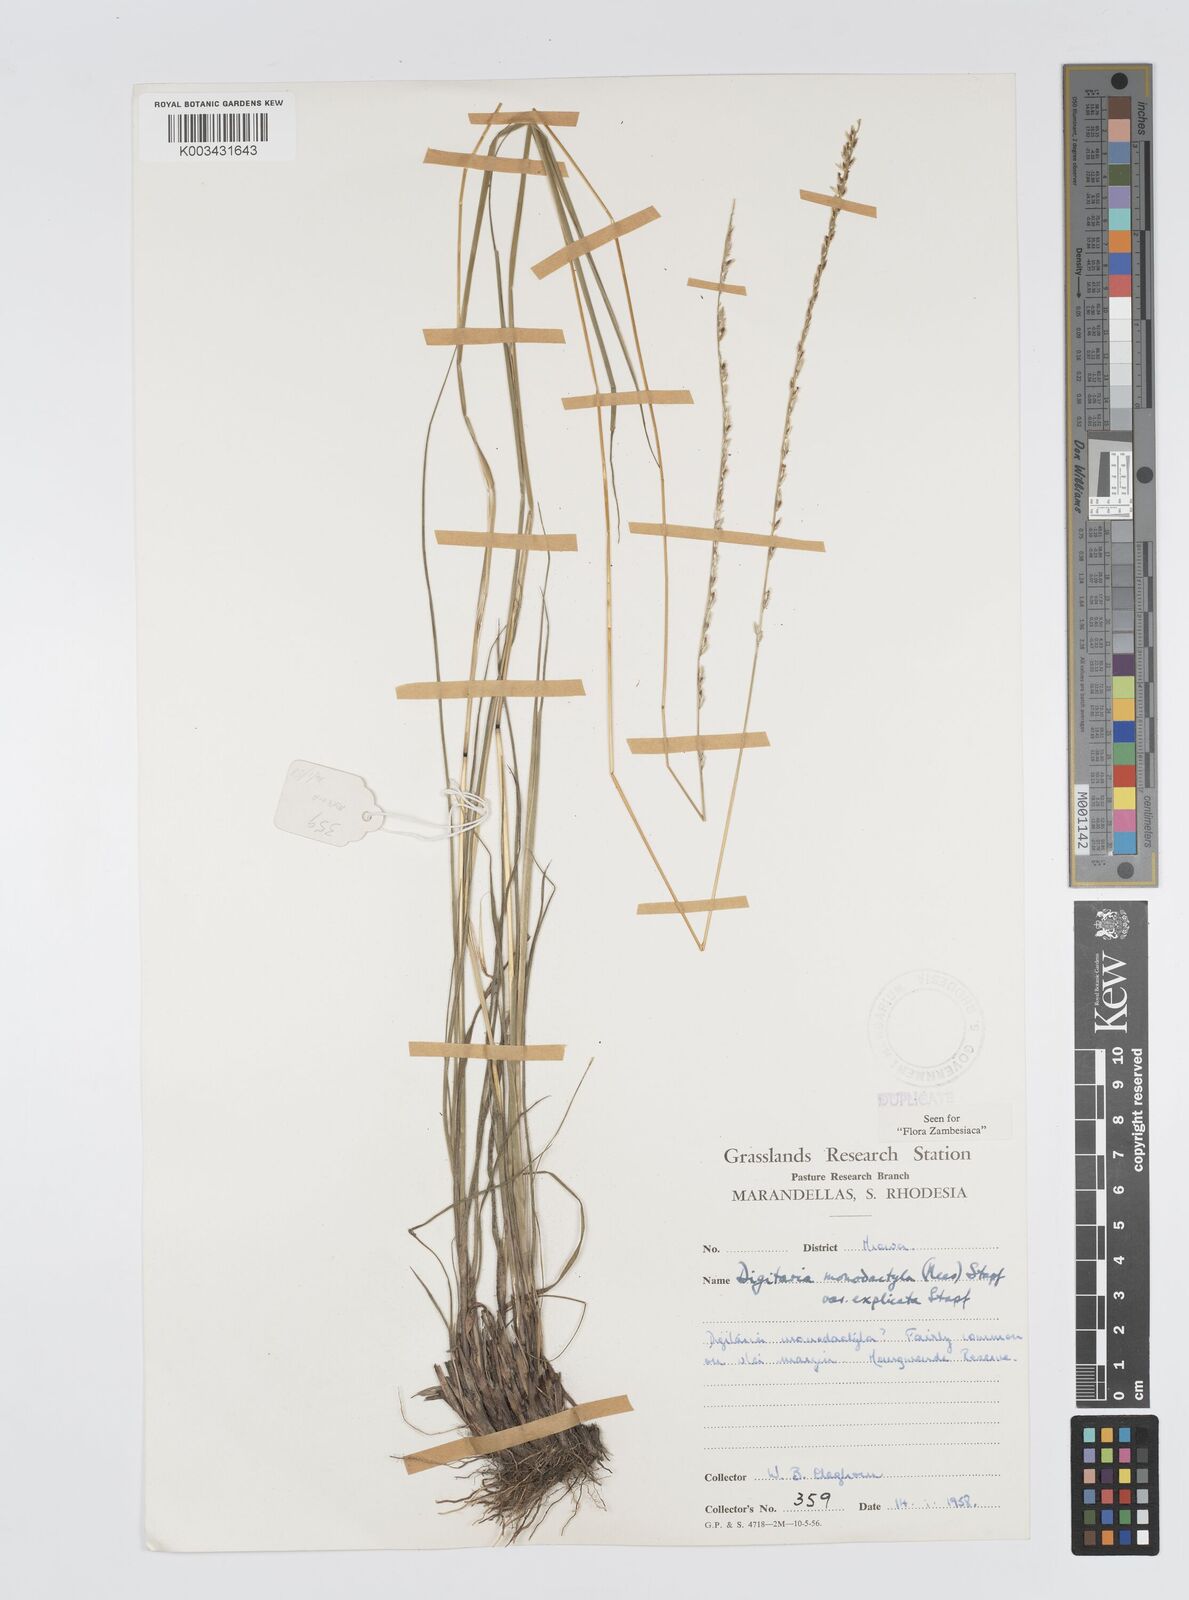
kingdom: Plantae
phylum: Tracheophyta
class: Liliopsida
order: Poales
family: Poaceae
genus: Digitaria
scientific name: Digitaria monodactyla
